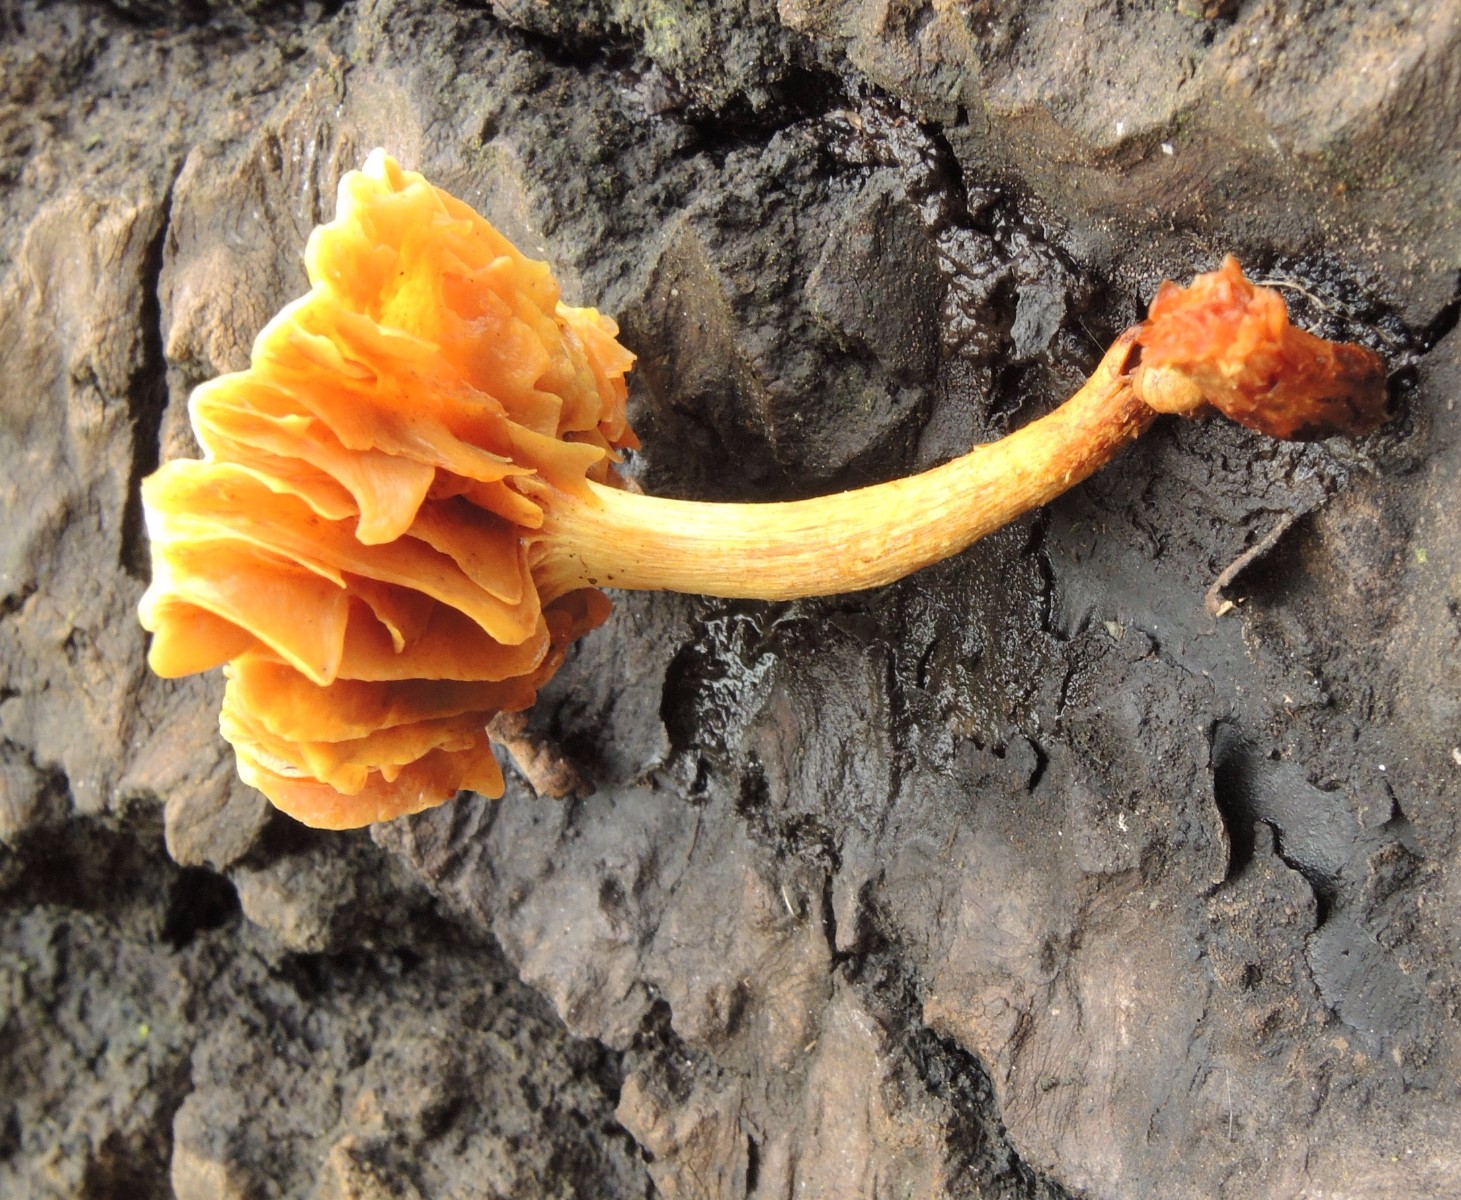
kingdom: Fungi
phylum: Basidiomycota
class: Agaricomycetes
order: Agaricales
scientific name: Agaricales
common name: champignonordenen
